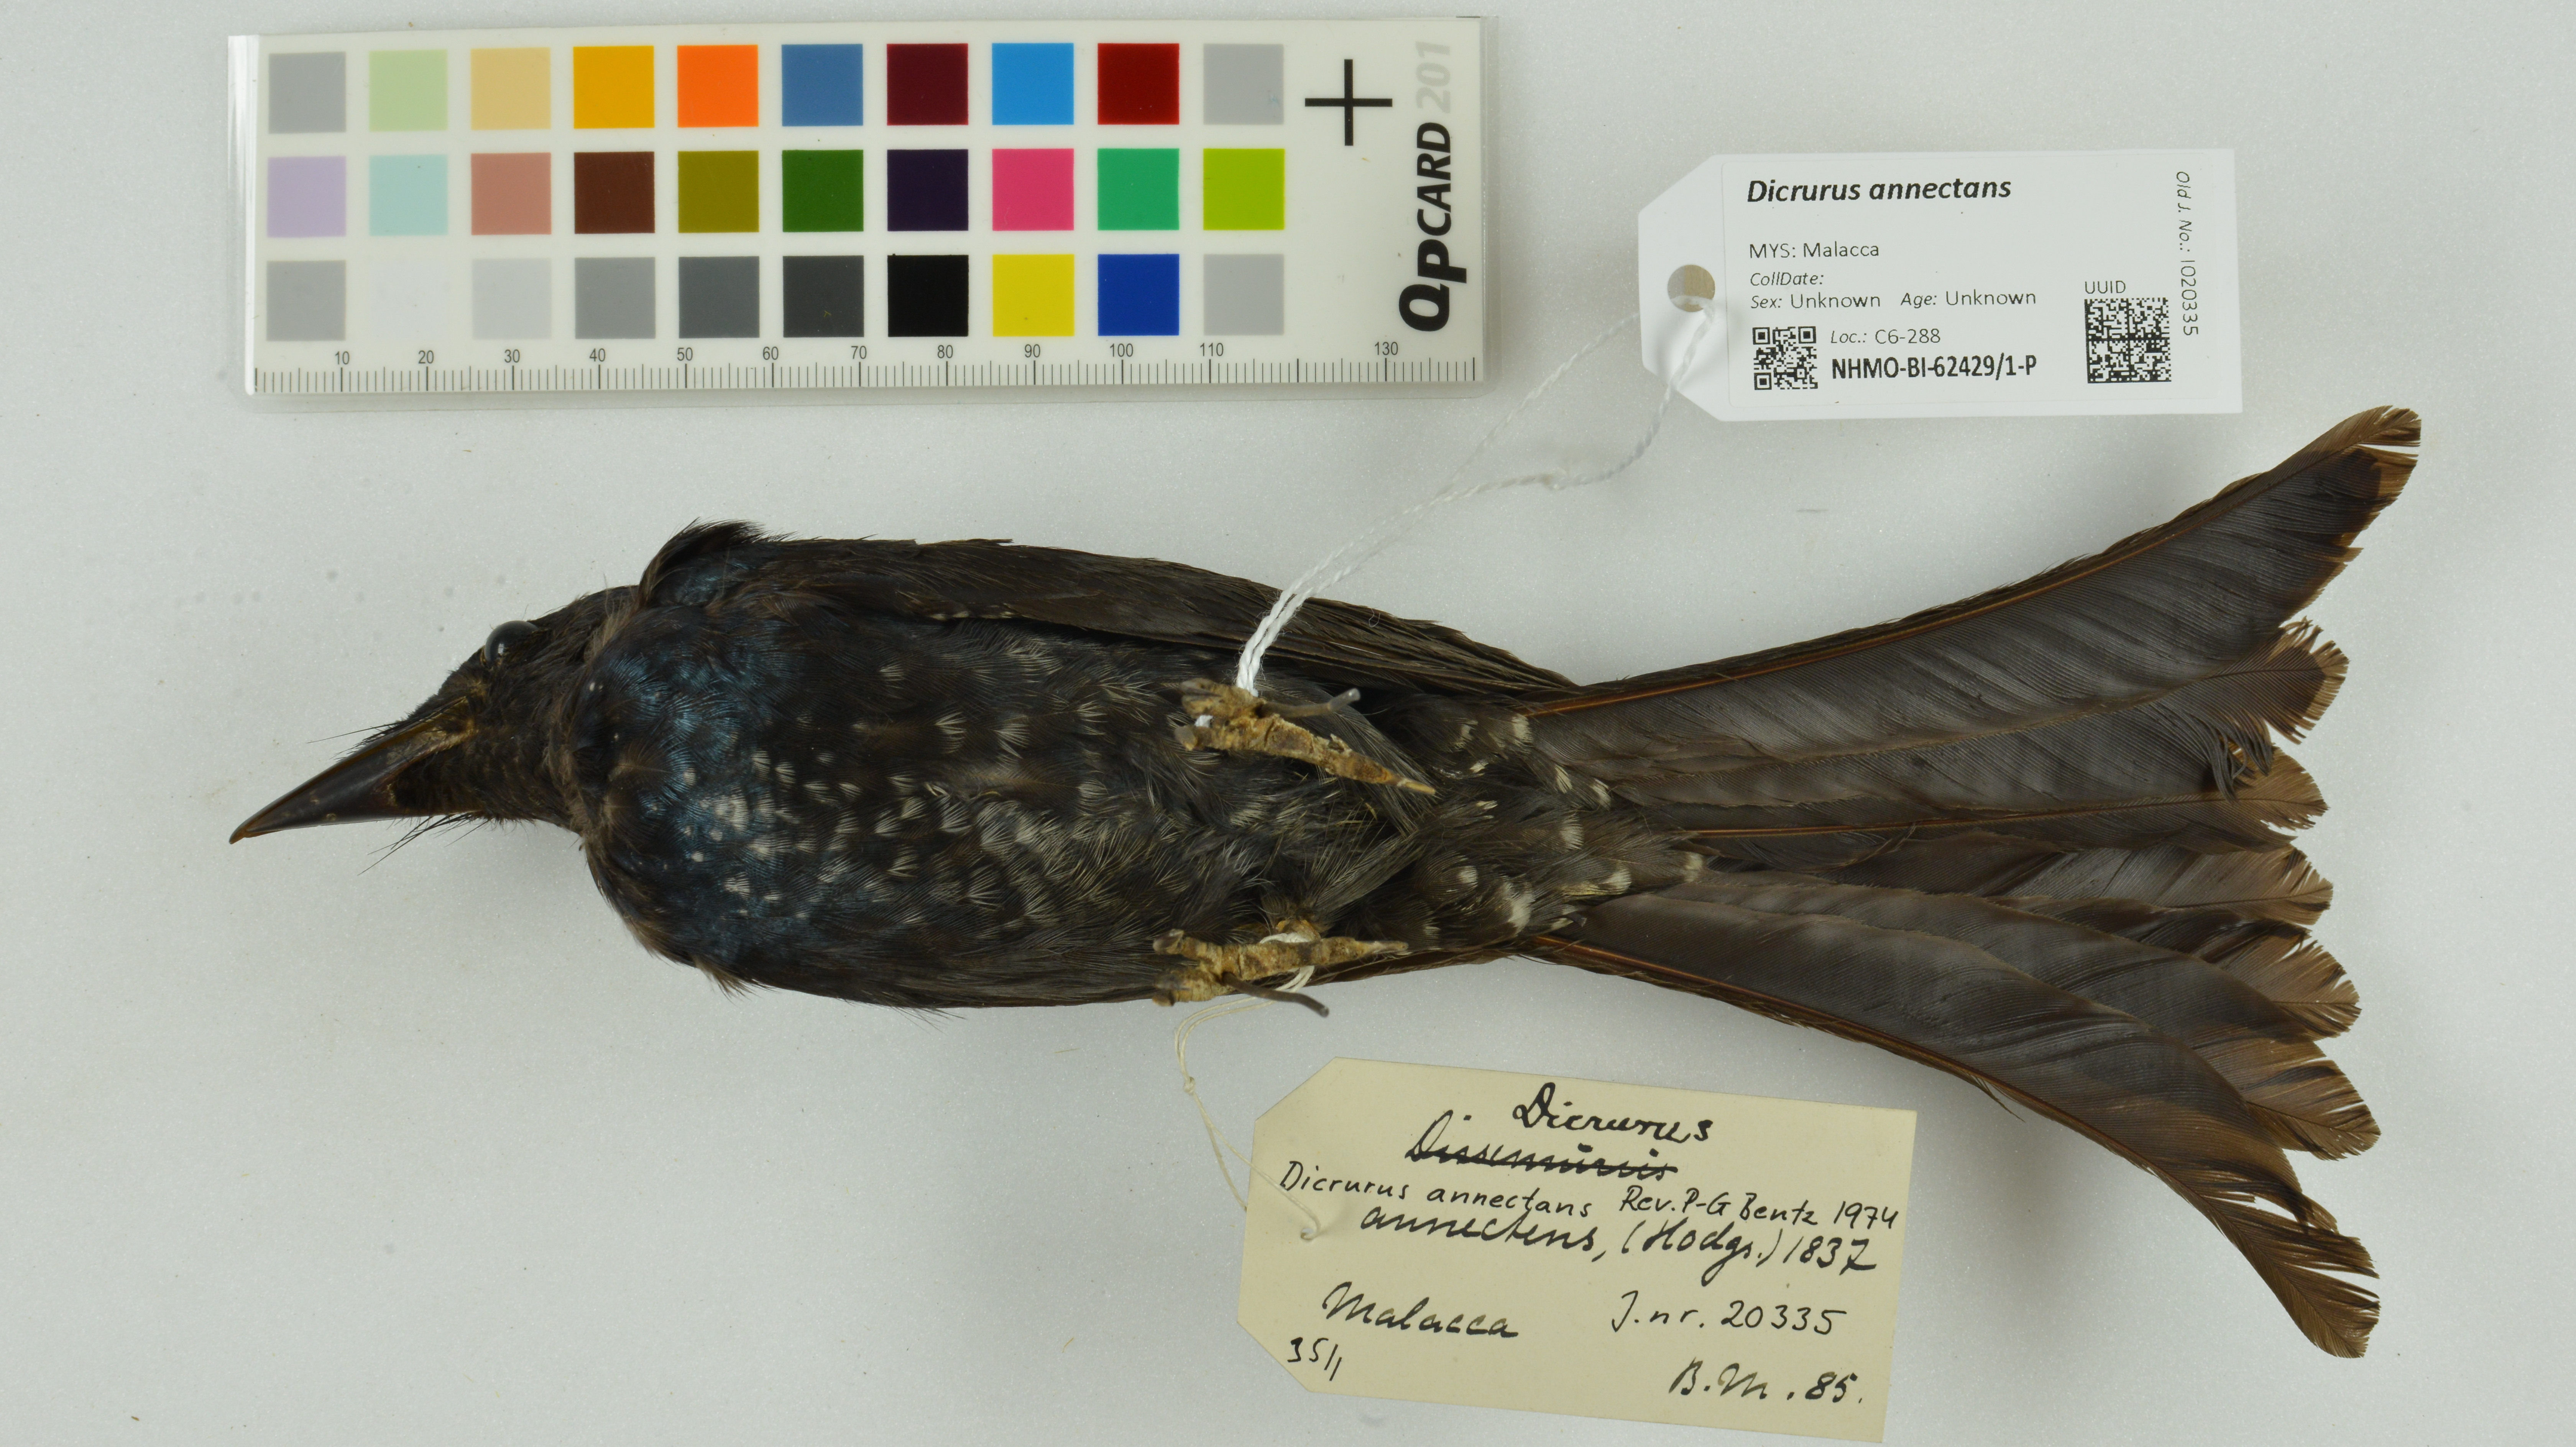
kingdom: Animalia
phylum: Chordata
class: Aves
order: Passeriformes
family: Dicruridae
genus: Dicrurus
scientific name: Dicrurus annectens
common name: Crow-billed drongo
